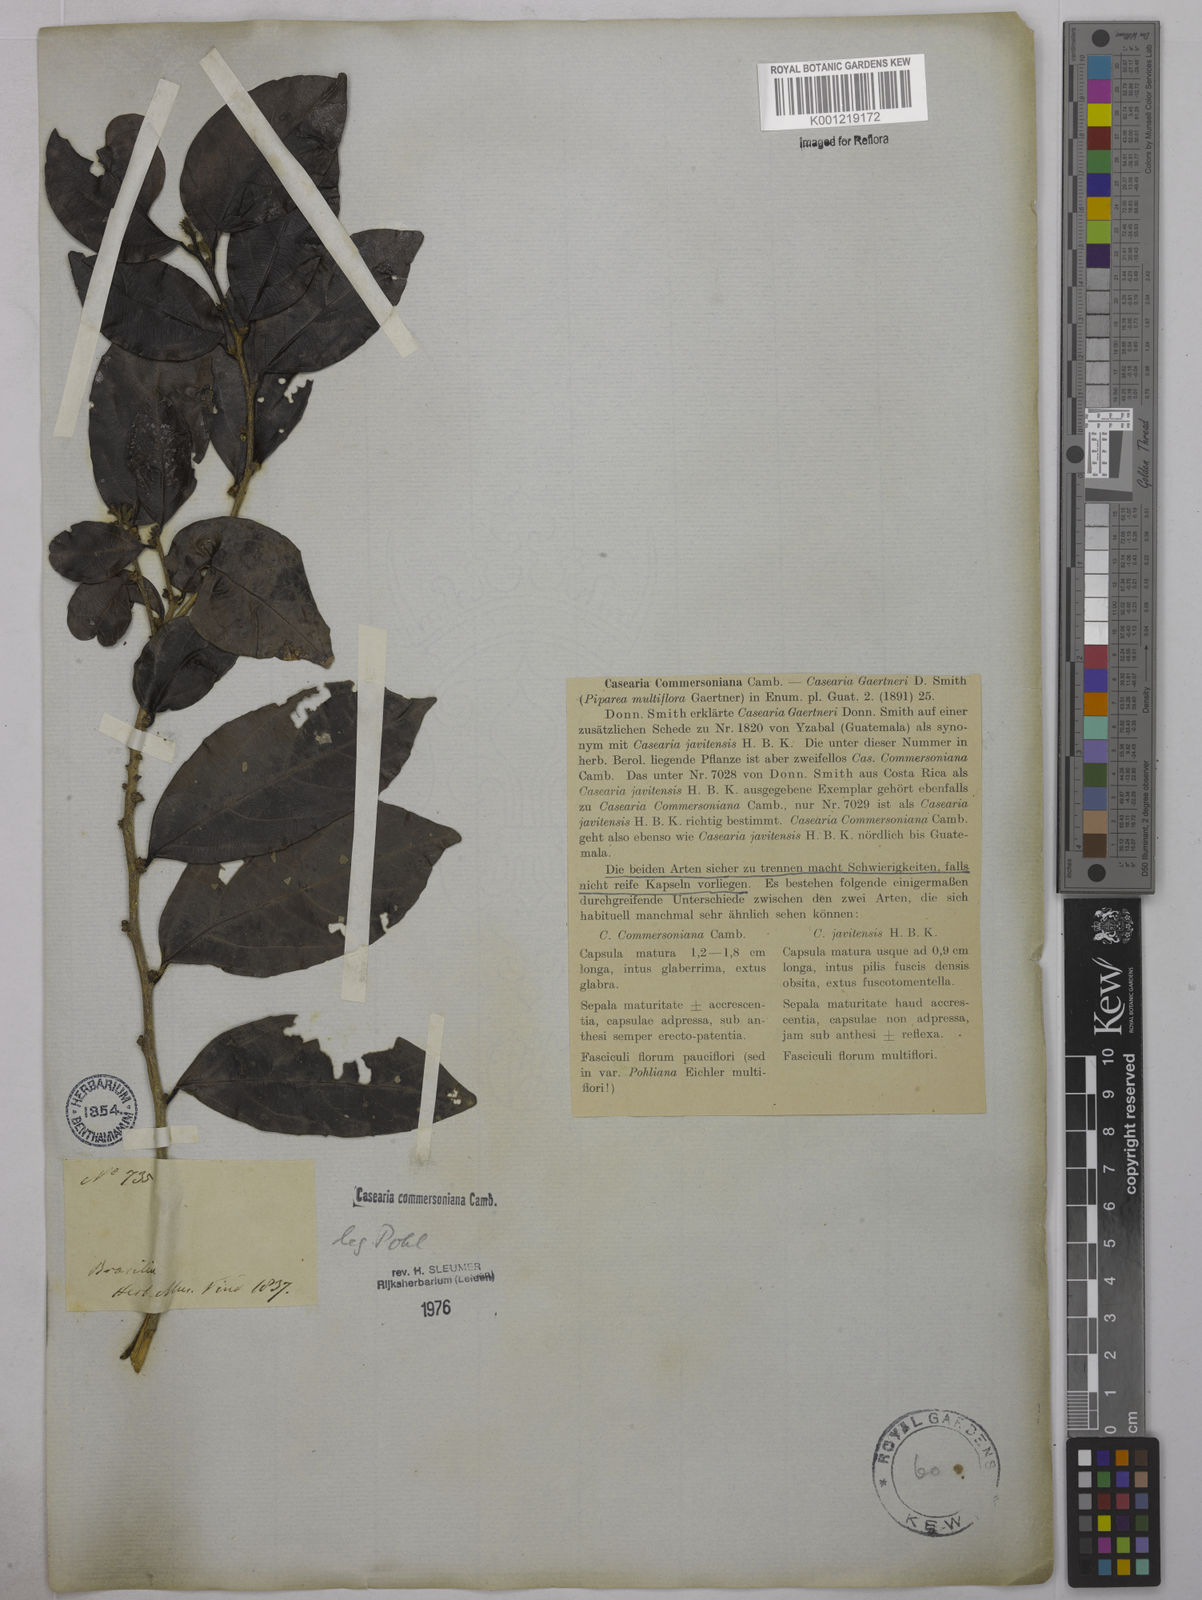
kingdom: Plantae
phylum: Tracheophyta
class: Magnoliopsida
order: Malpighiales
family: Salicaceae
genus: Piparea
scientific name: Piparea dentata
